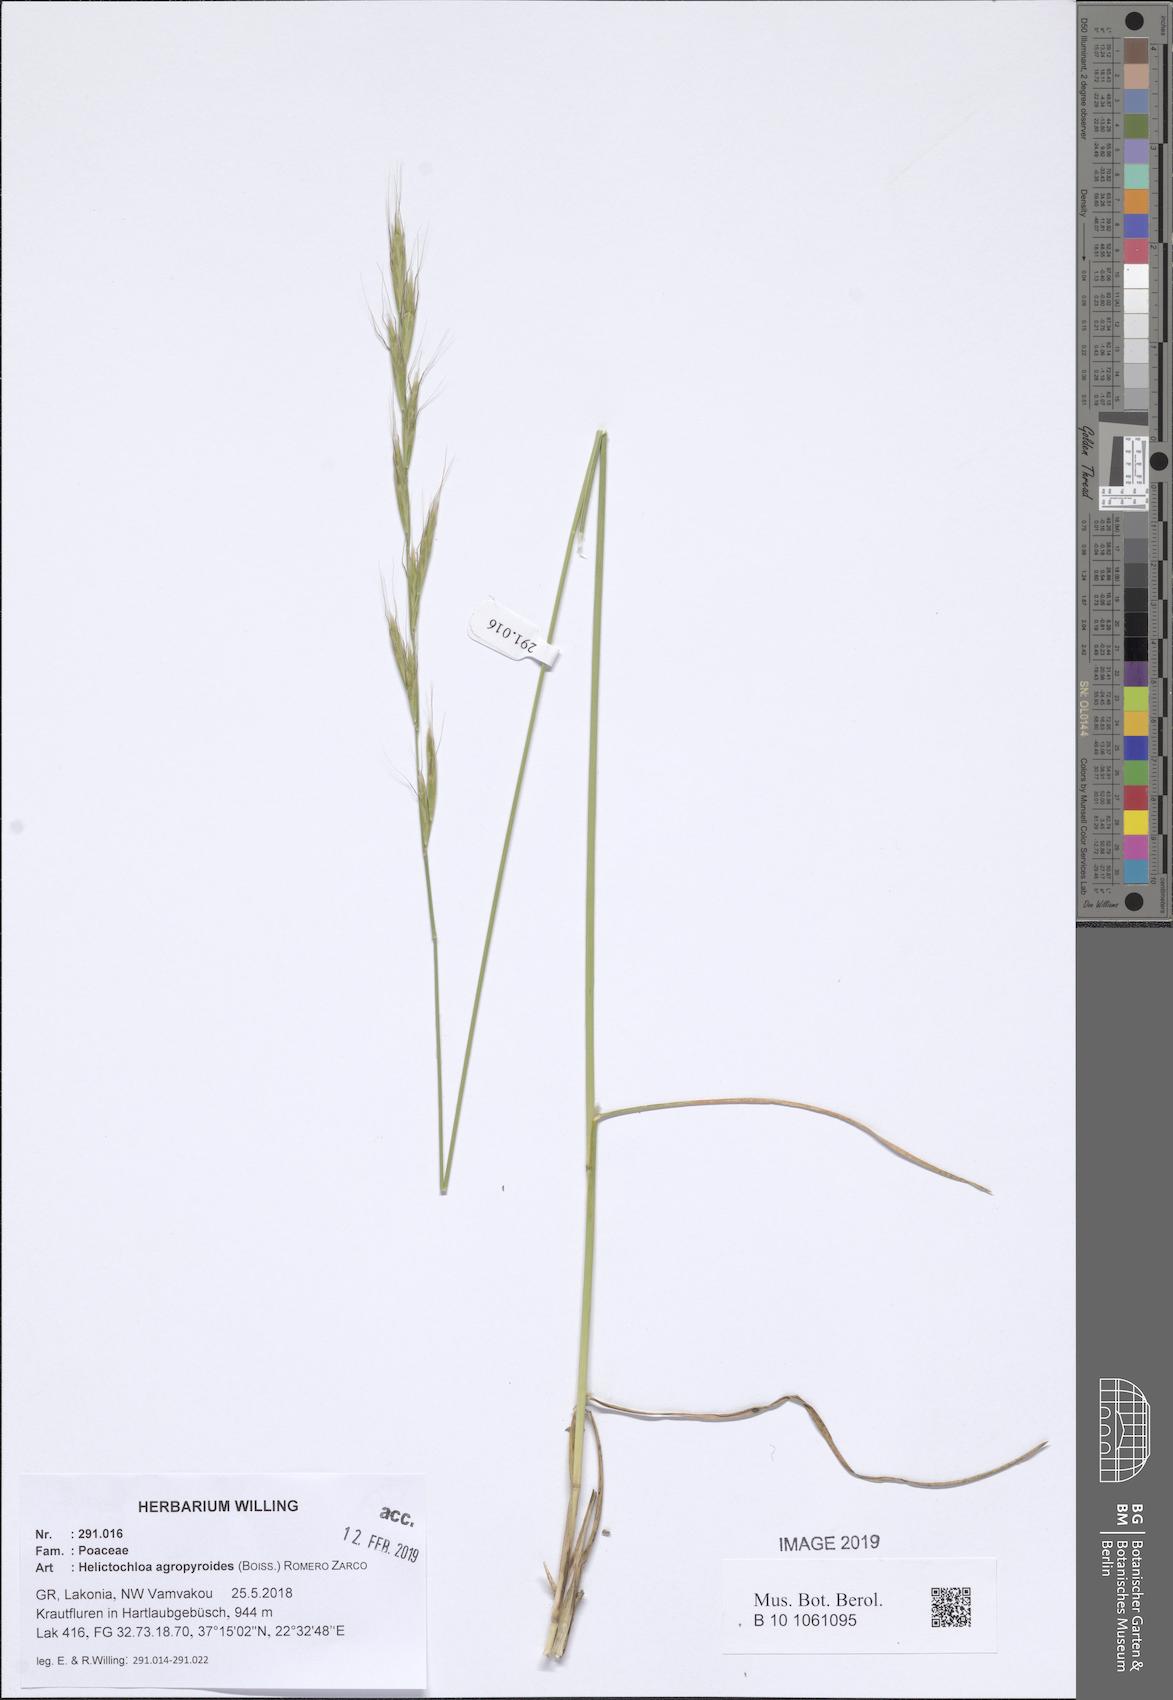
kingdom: Plantae
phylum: Tracheophyta
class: Liliopsida
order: Poales
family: Poaceae
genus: Helictochloa
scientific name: Helictochloa agropyroides
